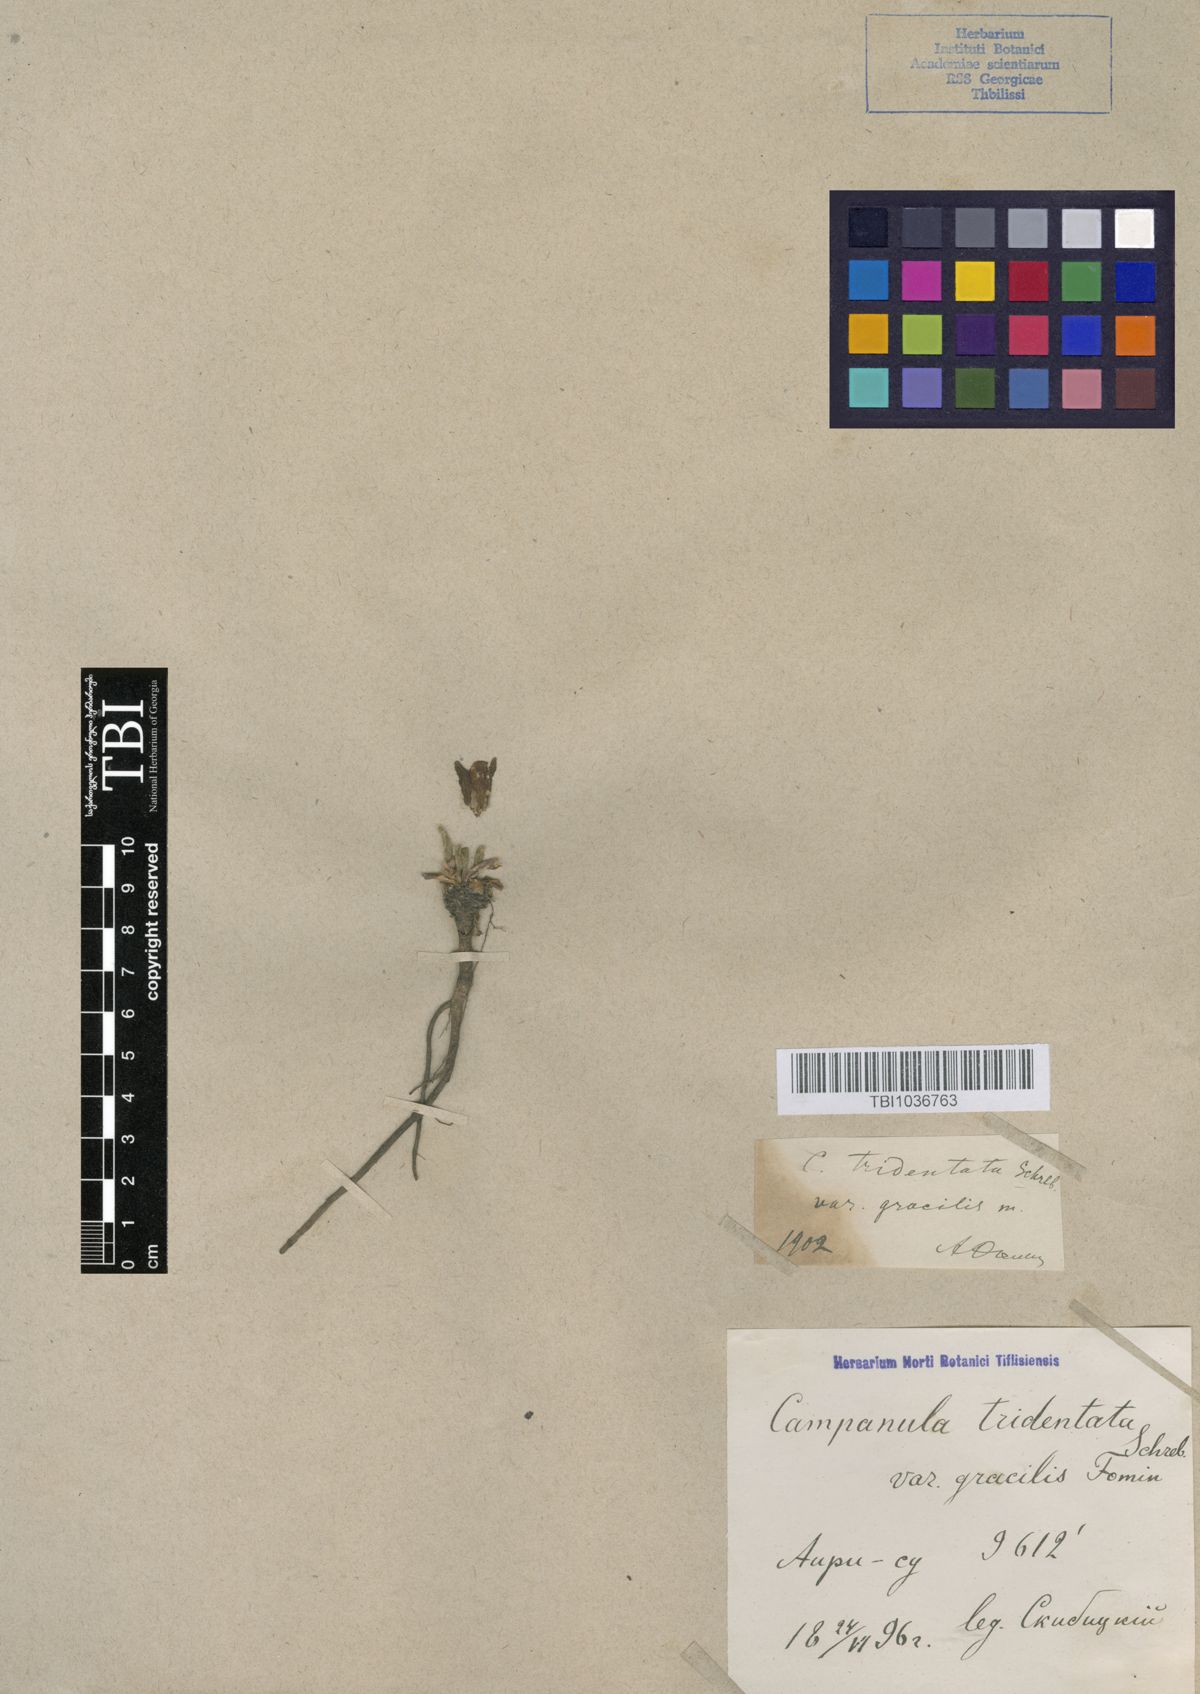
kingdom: Plantae
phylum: Tracheophyta
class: Magnoliopsida
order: Asterales
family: Campanulaceae
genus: Campanula
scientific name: Campanula tridentata
